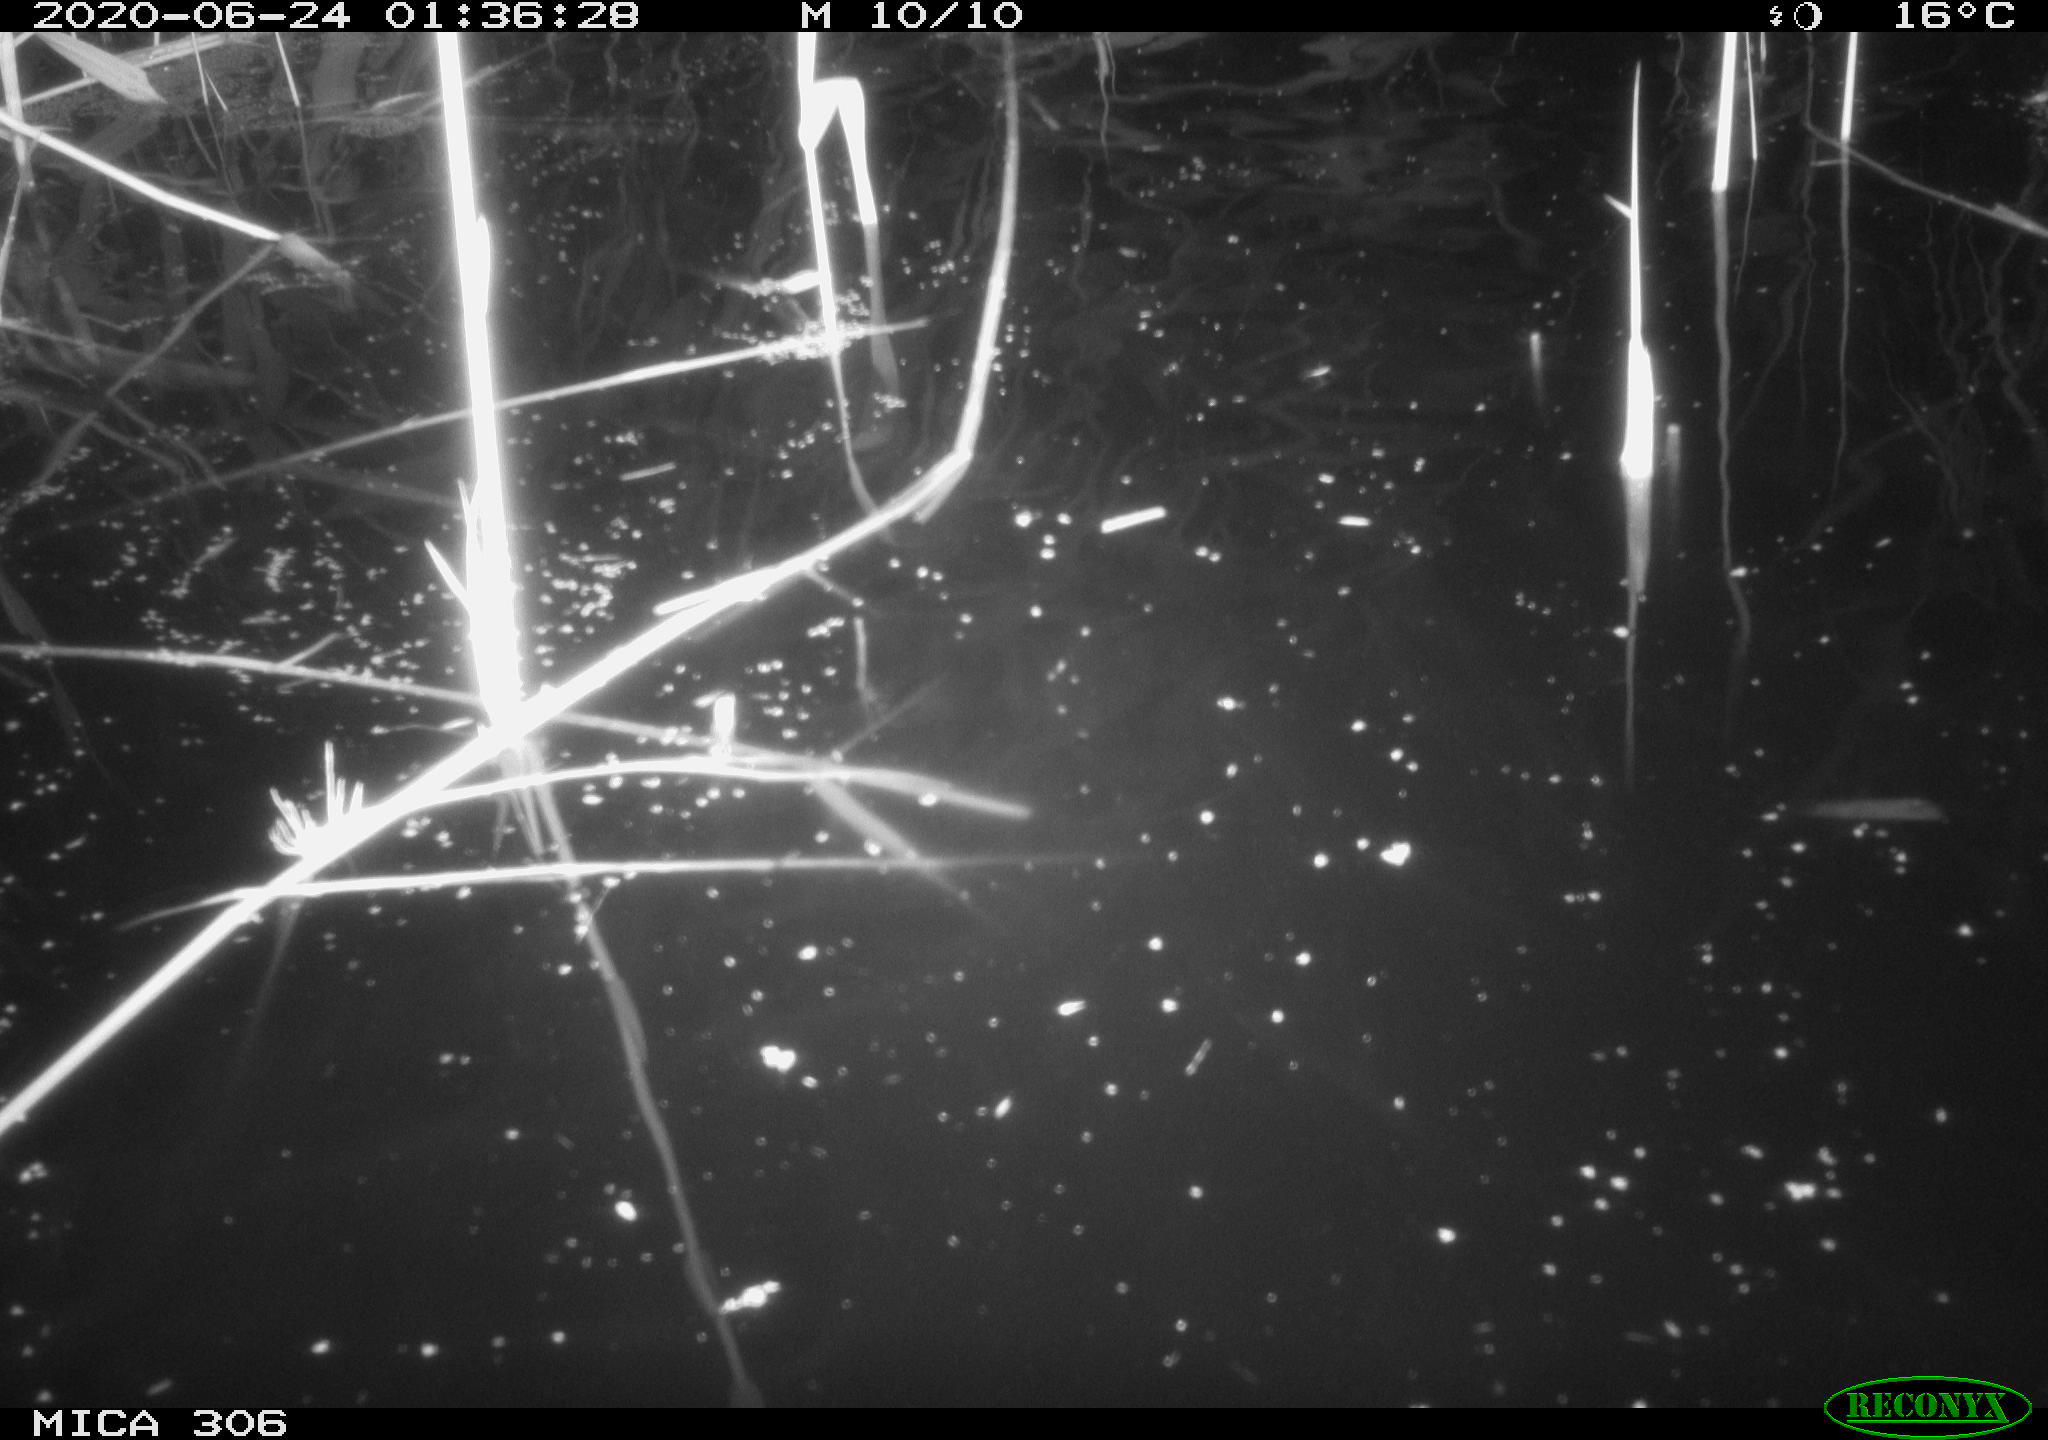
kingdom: Animalia
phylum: Chordata
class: Mammalia
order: Rodentia
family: Muridae
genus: Rattus
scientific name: Rattus norvegicus
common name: Brown rat
